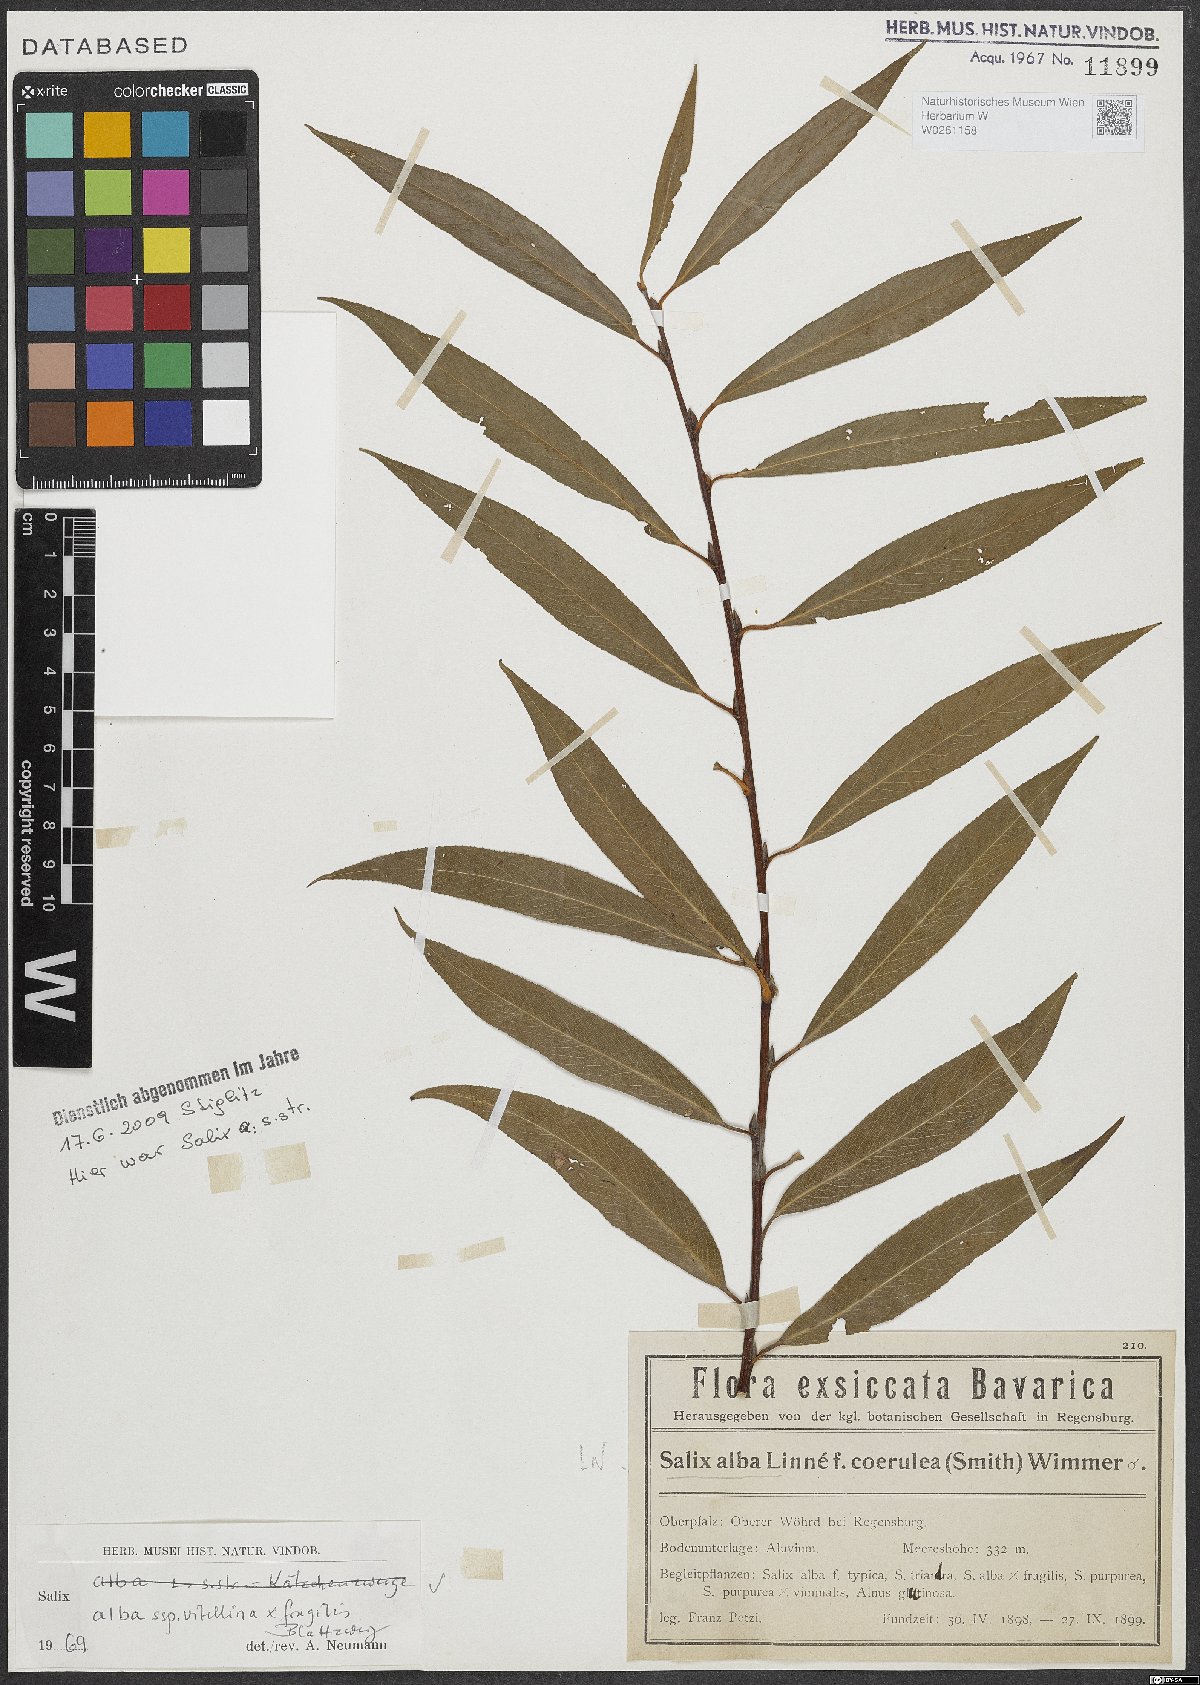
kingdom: Plantae
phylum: Tracheophyta
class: Magnoliopsida
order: Malpighiales
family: Salicaceae
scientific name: Salicaceae
